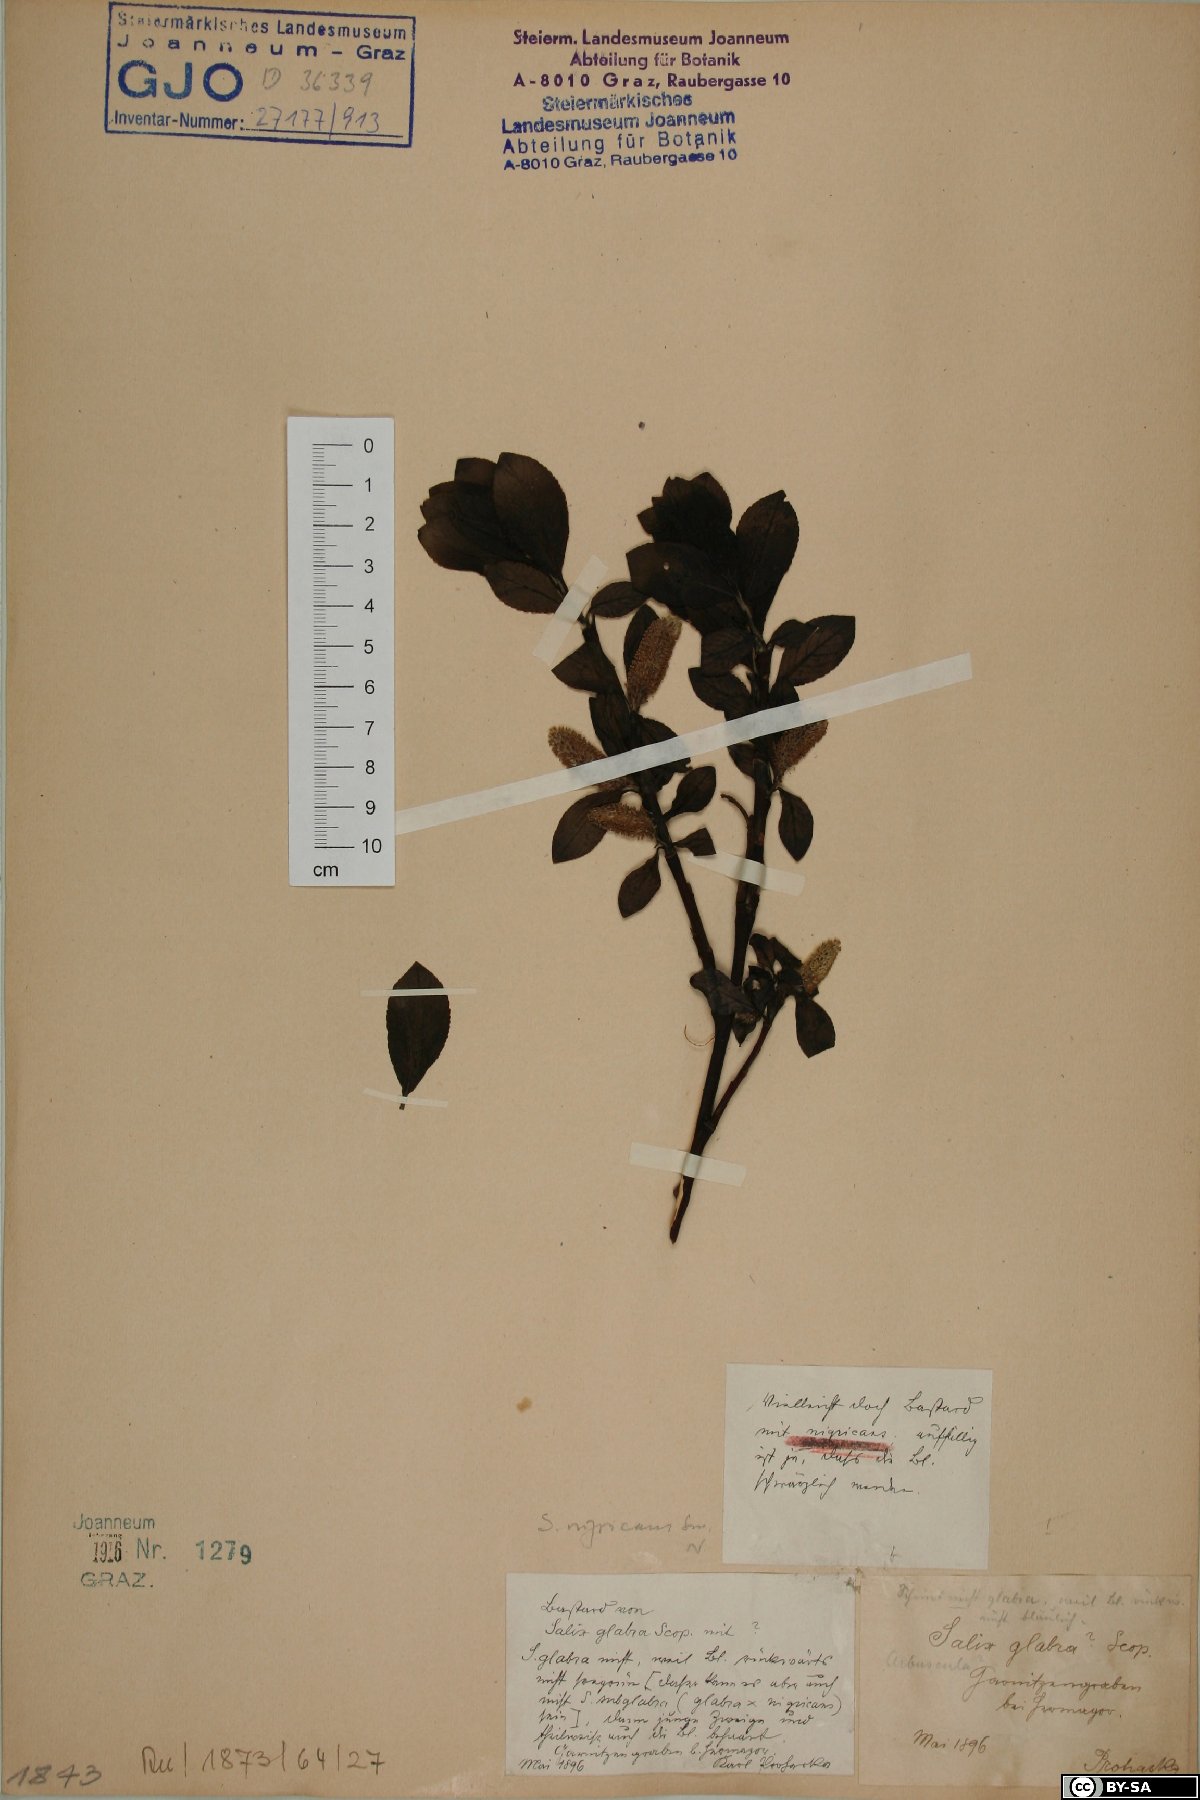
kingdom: Plantae
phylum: Tracheophyta
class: Magnoliopsida
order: Malpighiales
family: Salicaceae
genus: Salix
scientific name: Salix myrsinifolia
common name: Dark-leaved willow
